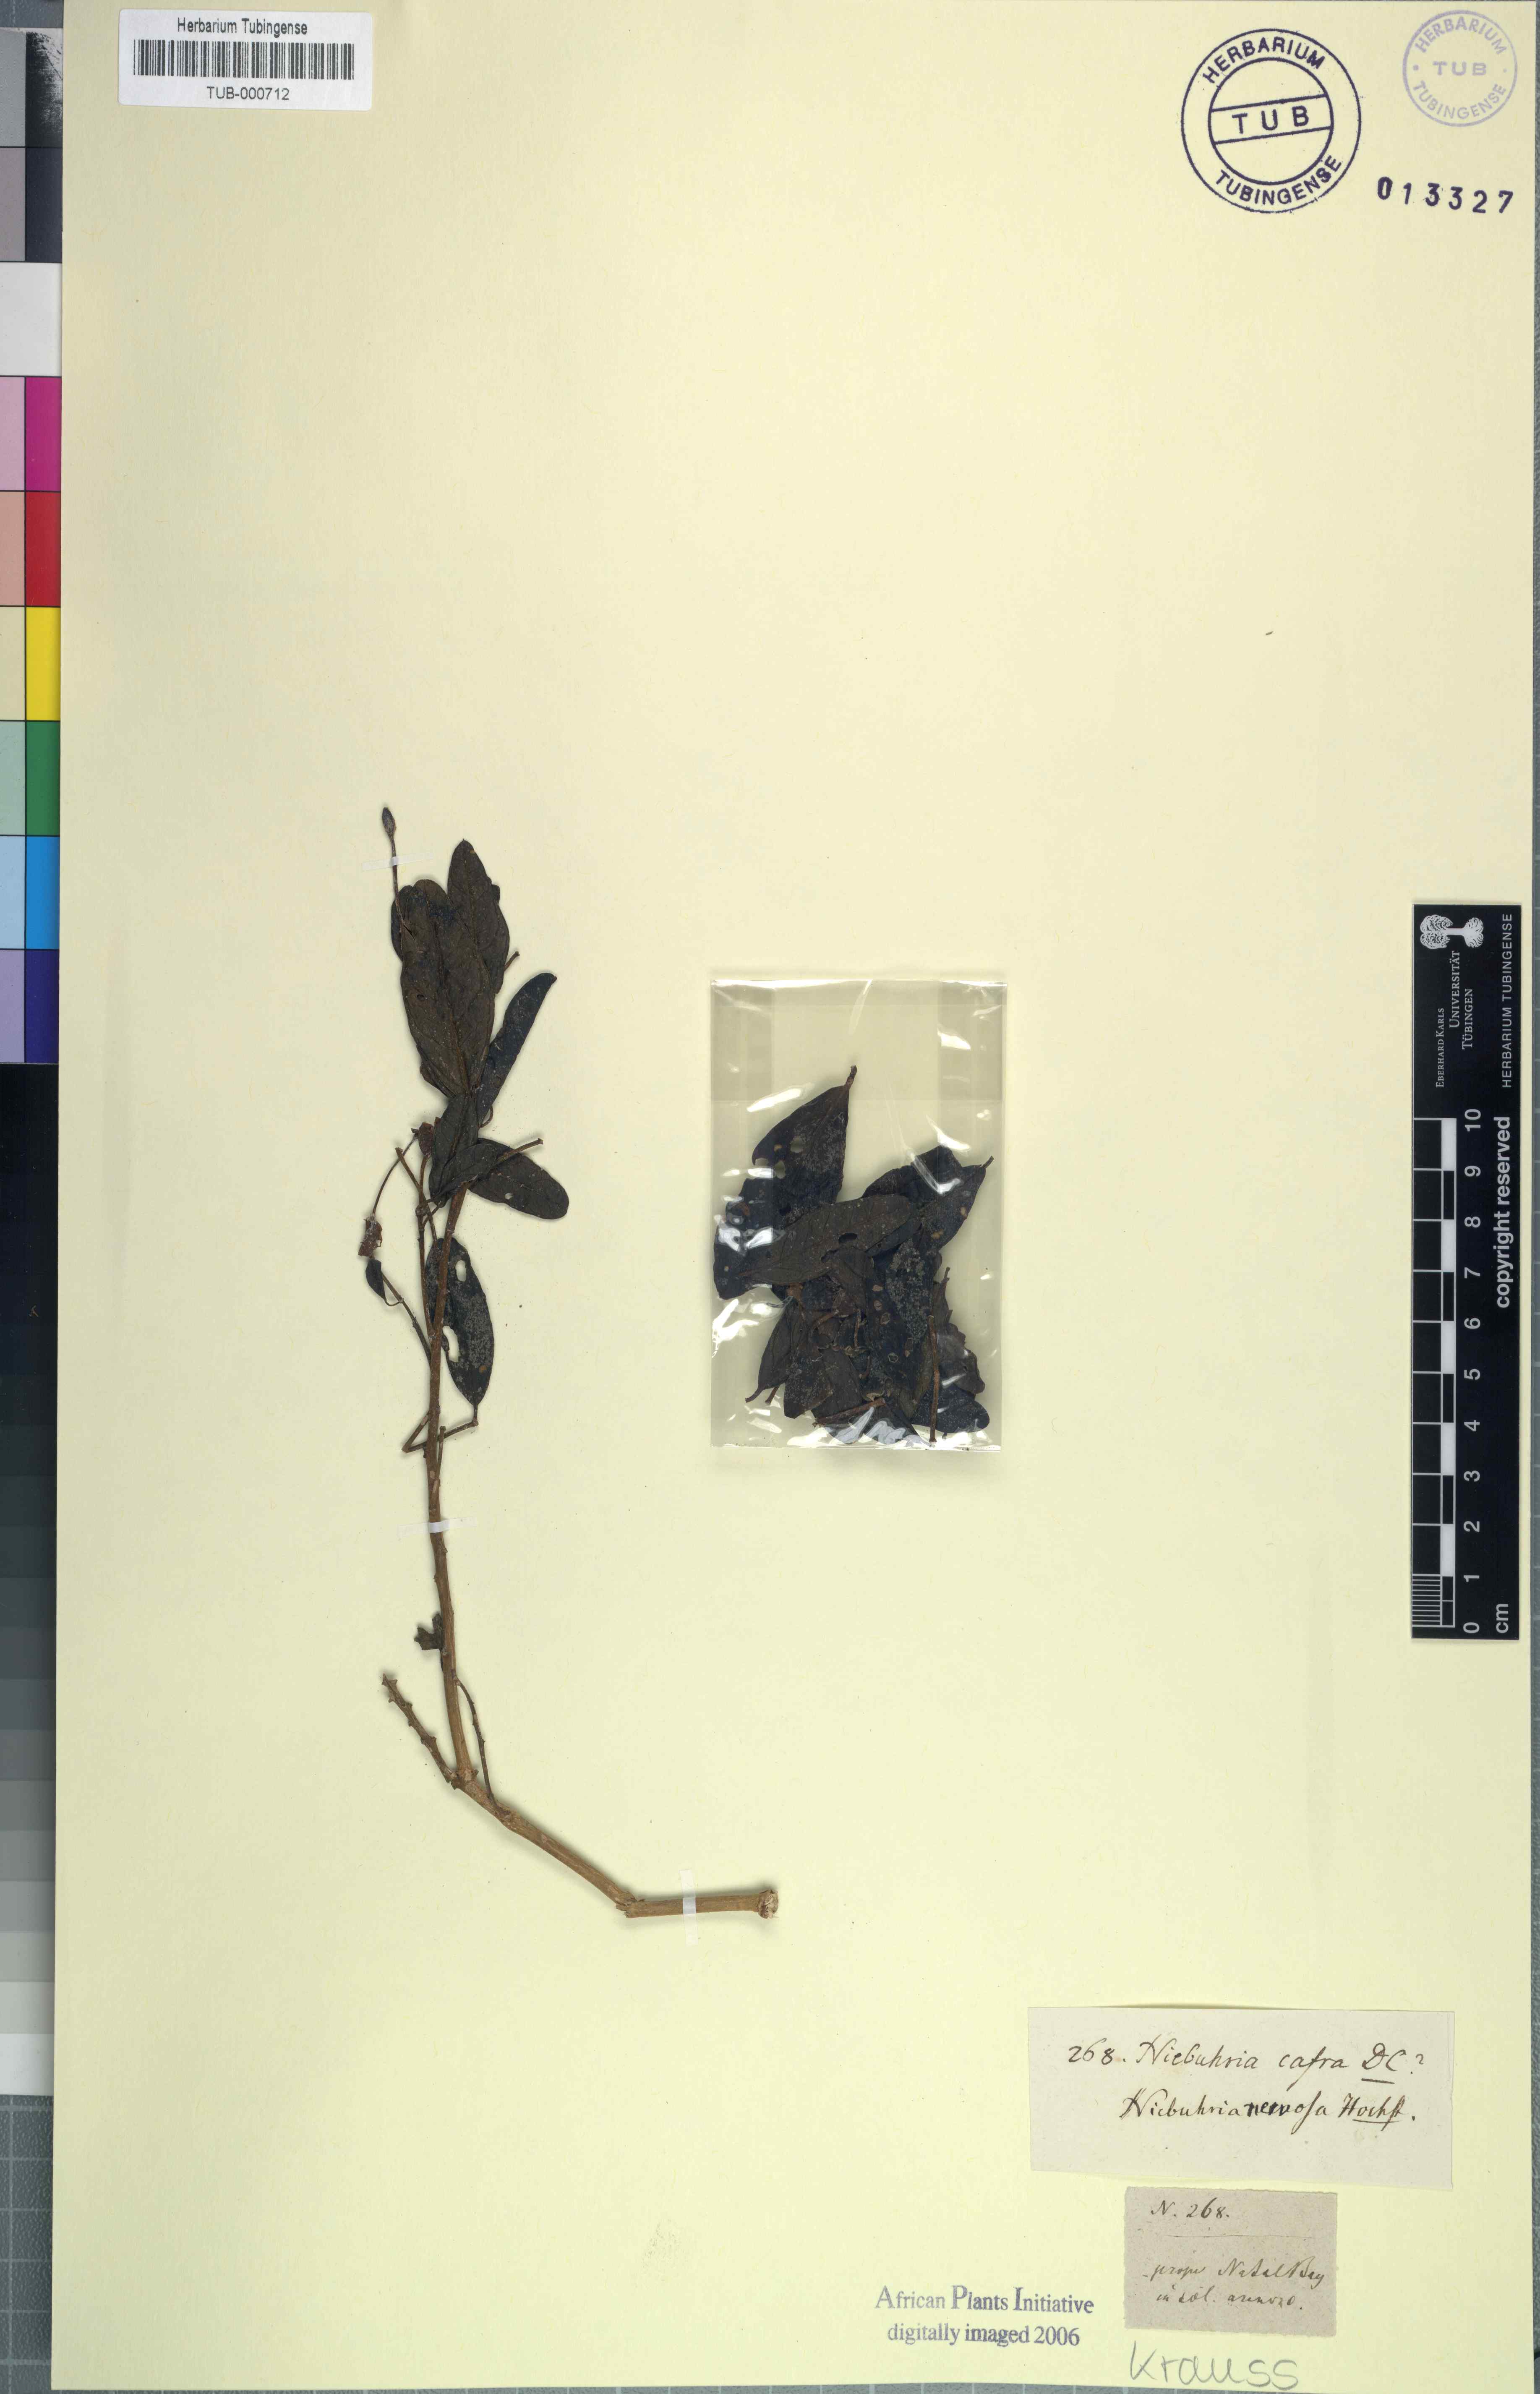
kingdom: Plantae
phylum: Tracheophyta
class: Magnoliopsida
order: Brassicales
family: Capparaceae
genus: Maerua
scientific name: Maerua cafra
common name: Bush maerua
